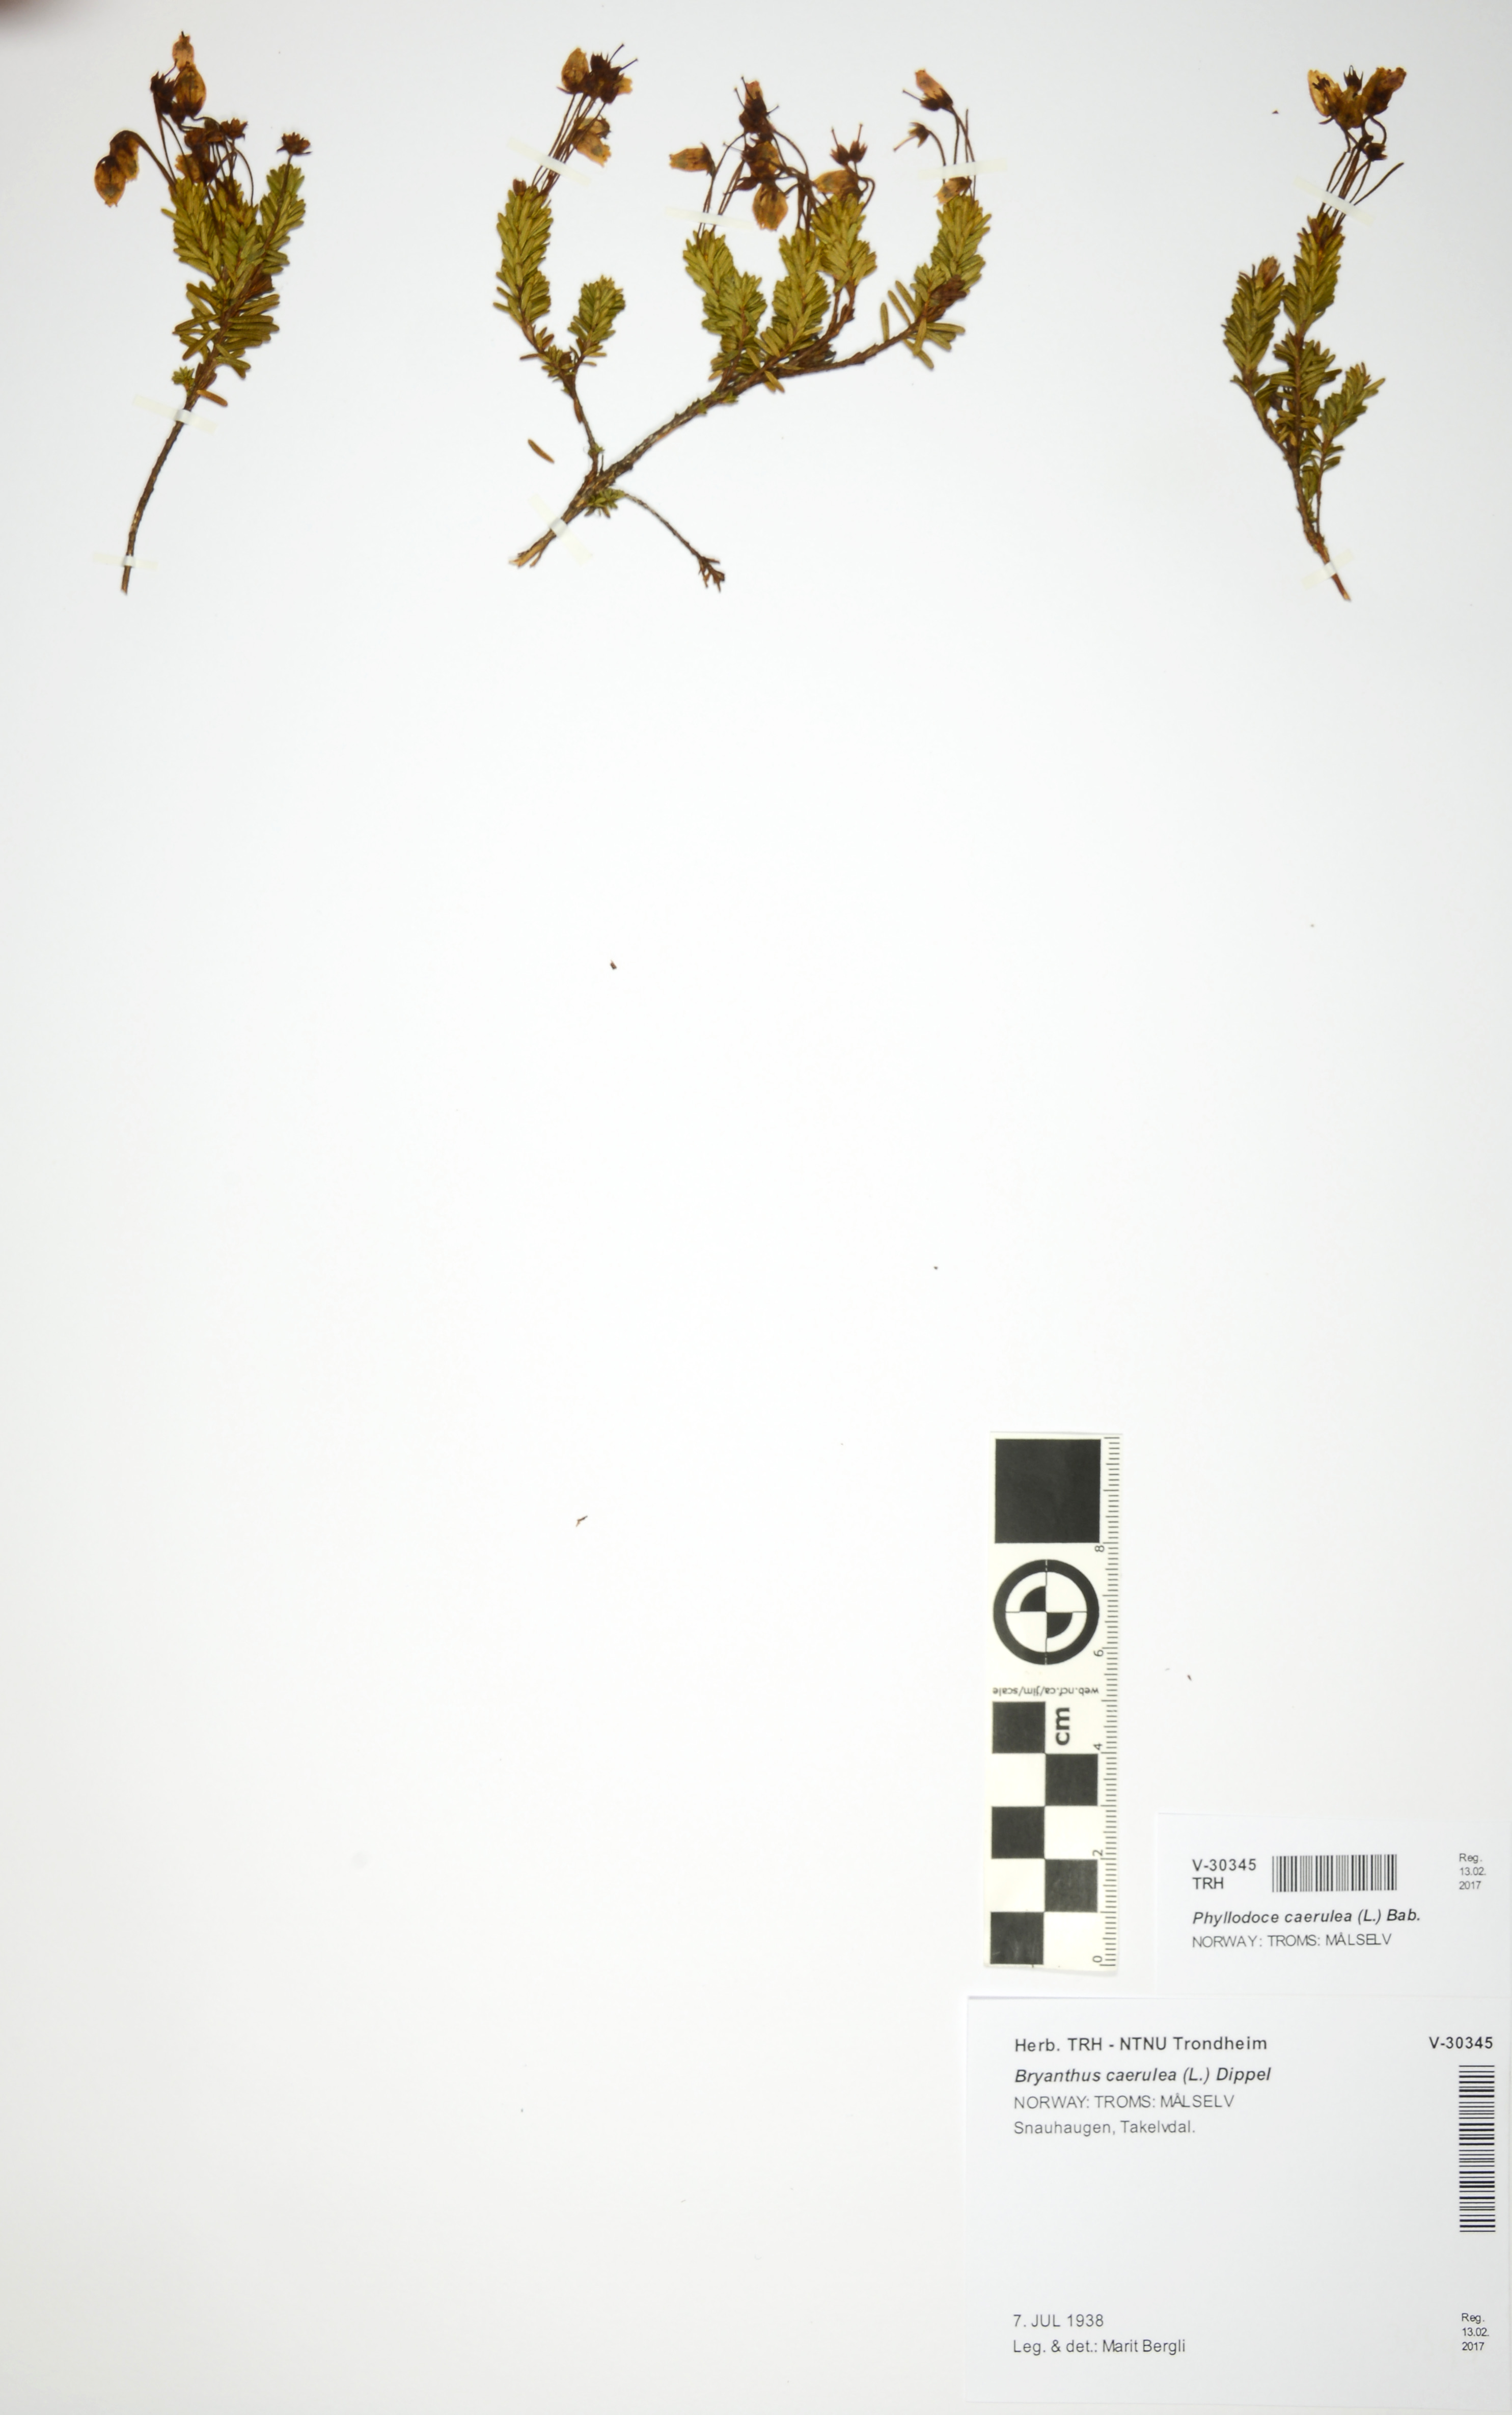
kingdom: Plantae
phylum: Tracheophyta
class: Magnoliopsida
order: Ericales
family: Ericaceae
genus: Phyllodoce
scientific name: Phyllodoce caerulea
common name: Blue heath
